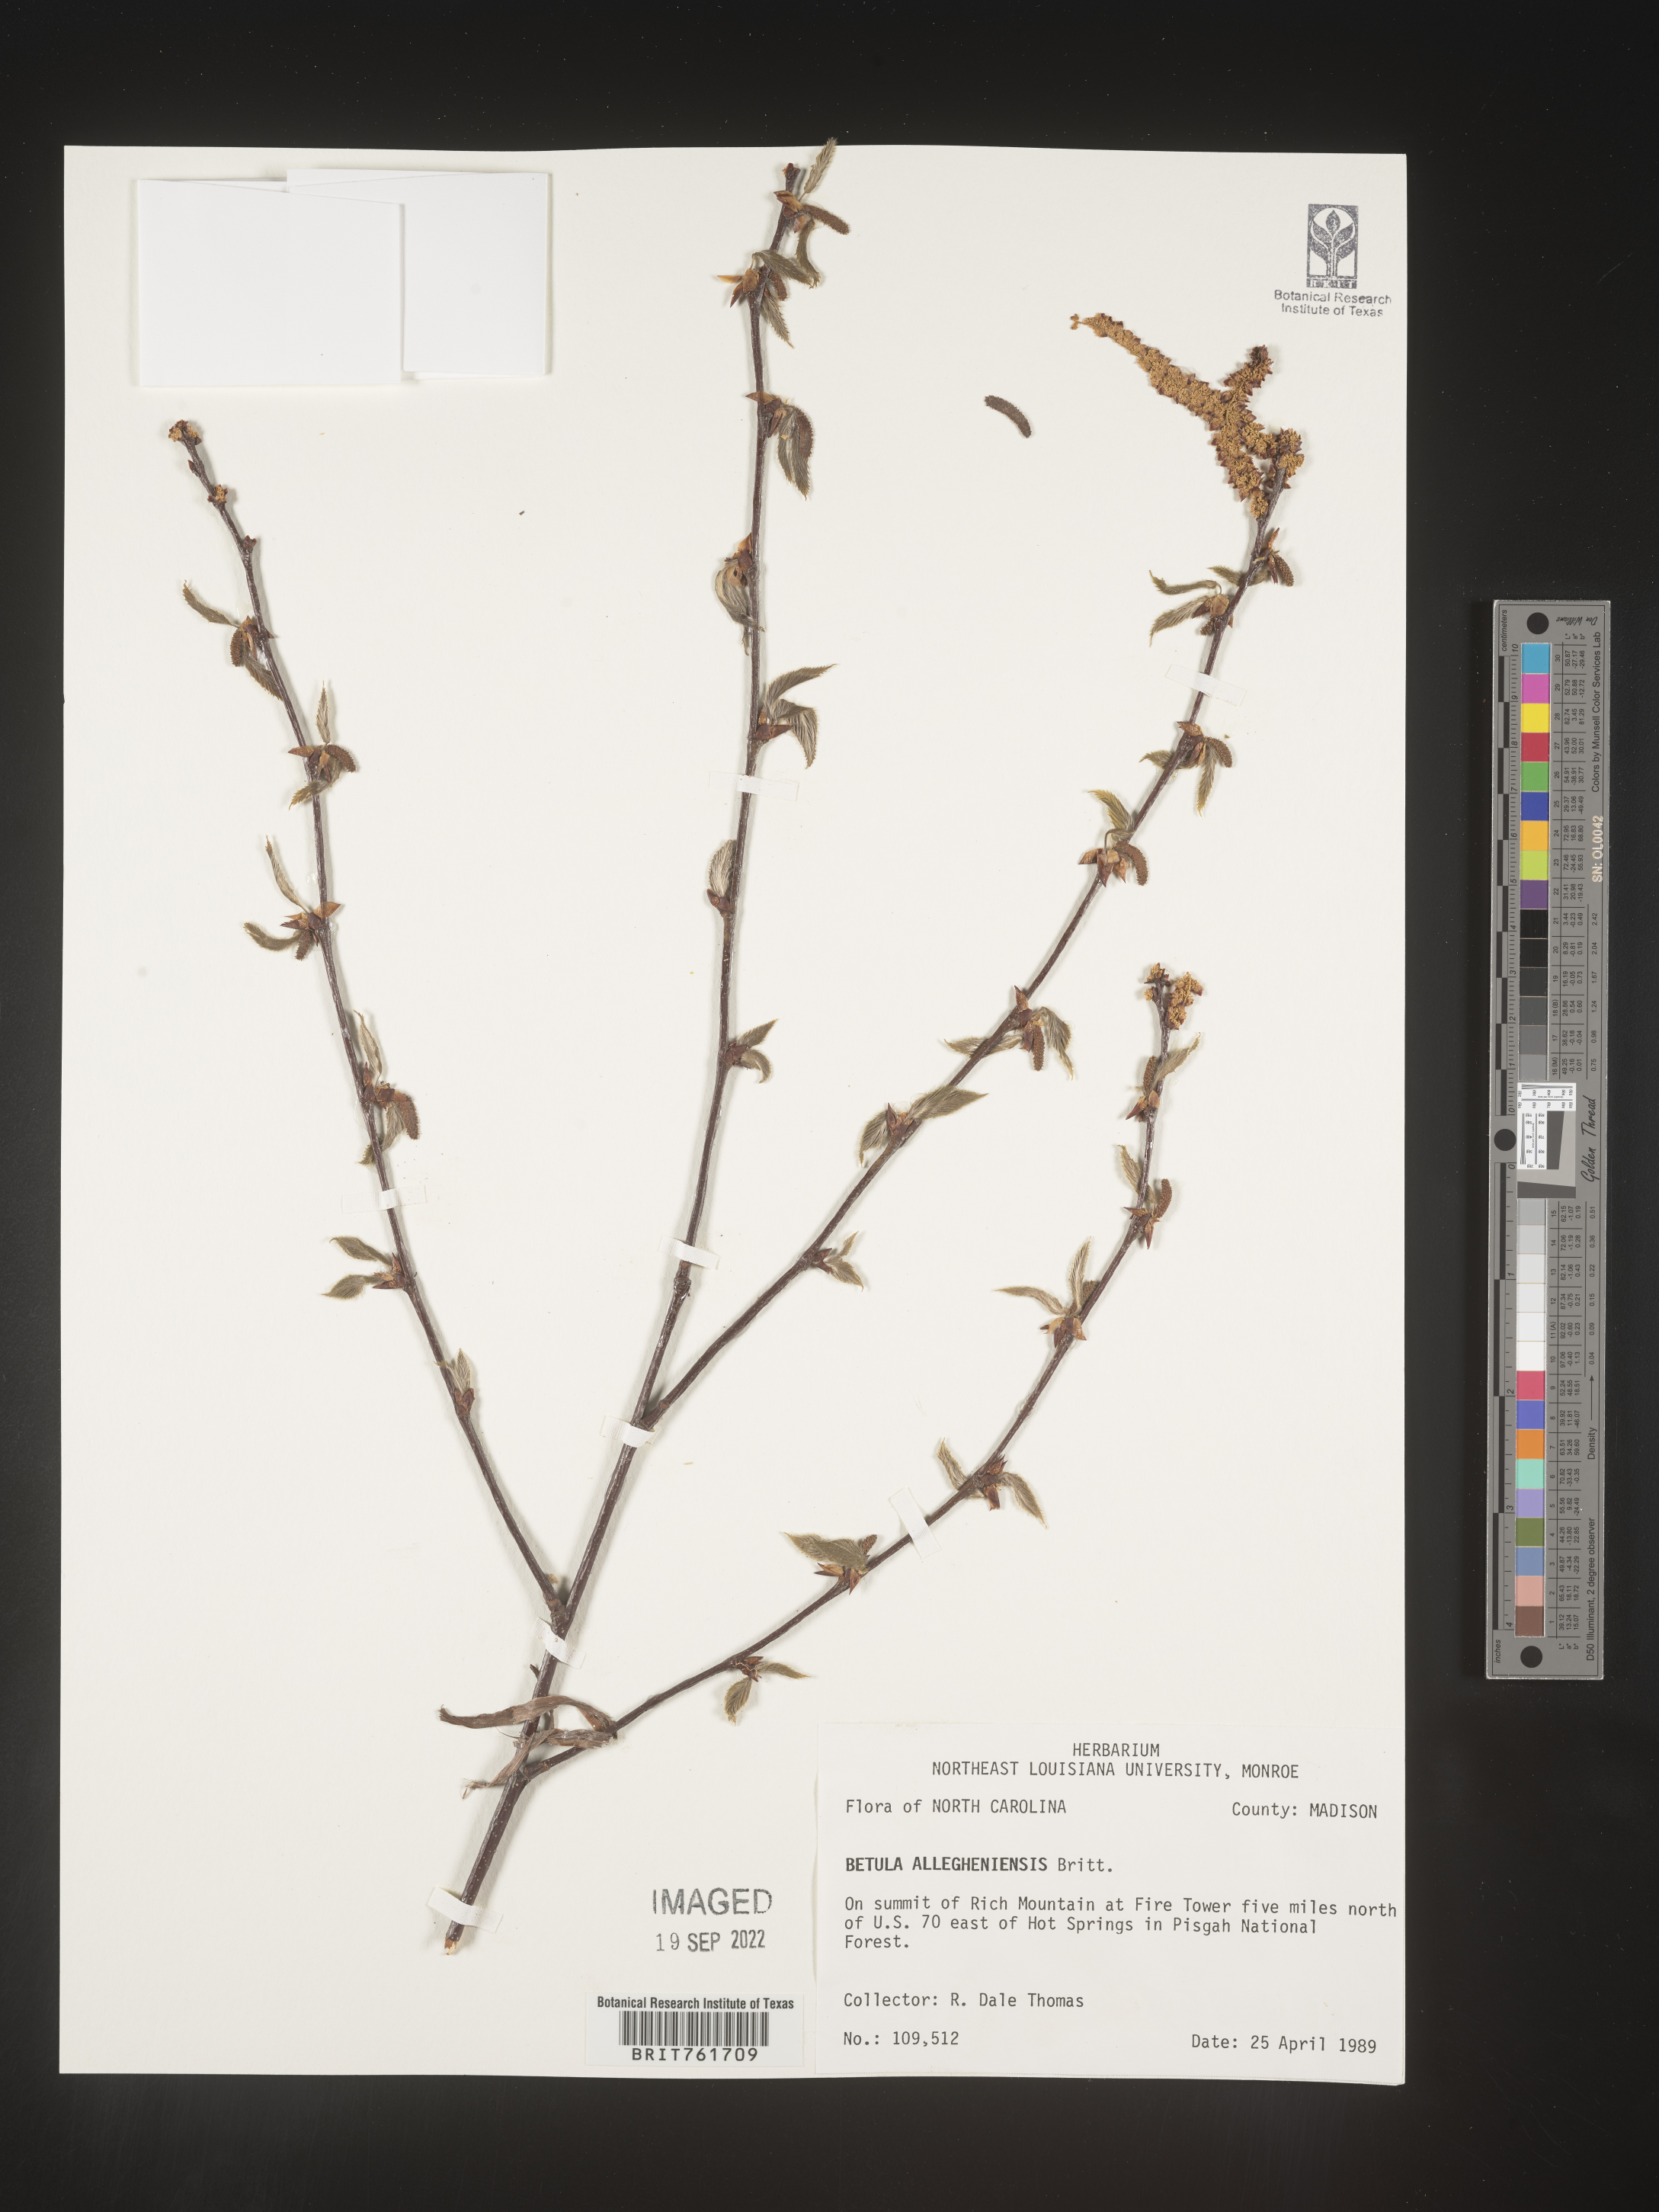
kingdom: Plantae
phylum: Tracheophyta
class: Magnoliopsida
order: Fagales
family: Betulaceae
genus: Betula
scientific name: Betula alleghaniensis
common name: Yellow birch
